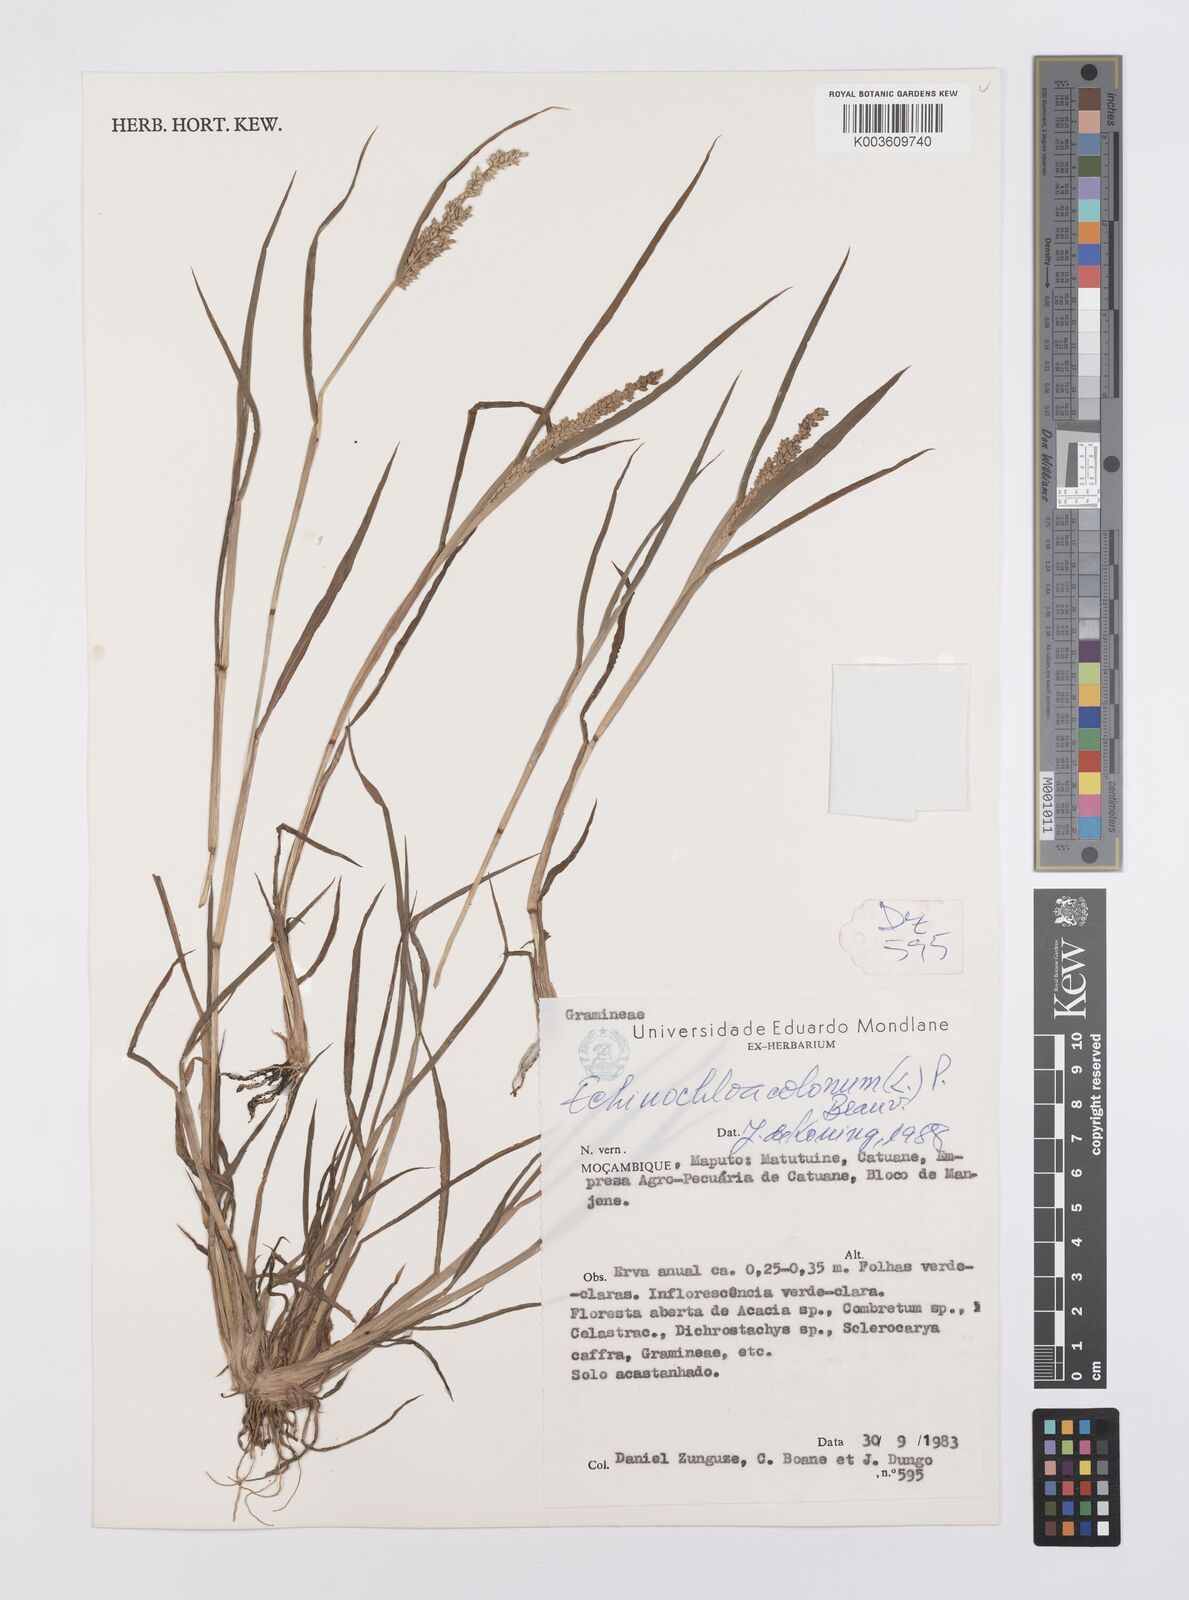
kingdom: Plantae
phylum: Tracheophyta
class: Liliopsida
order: Poales
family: Poaceae
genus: Echinochloa
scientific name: Echinochloa colonum
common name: Jungle rice
